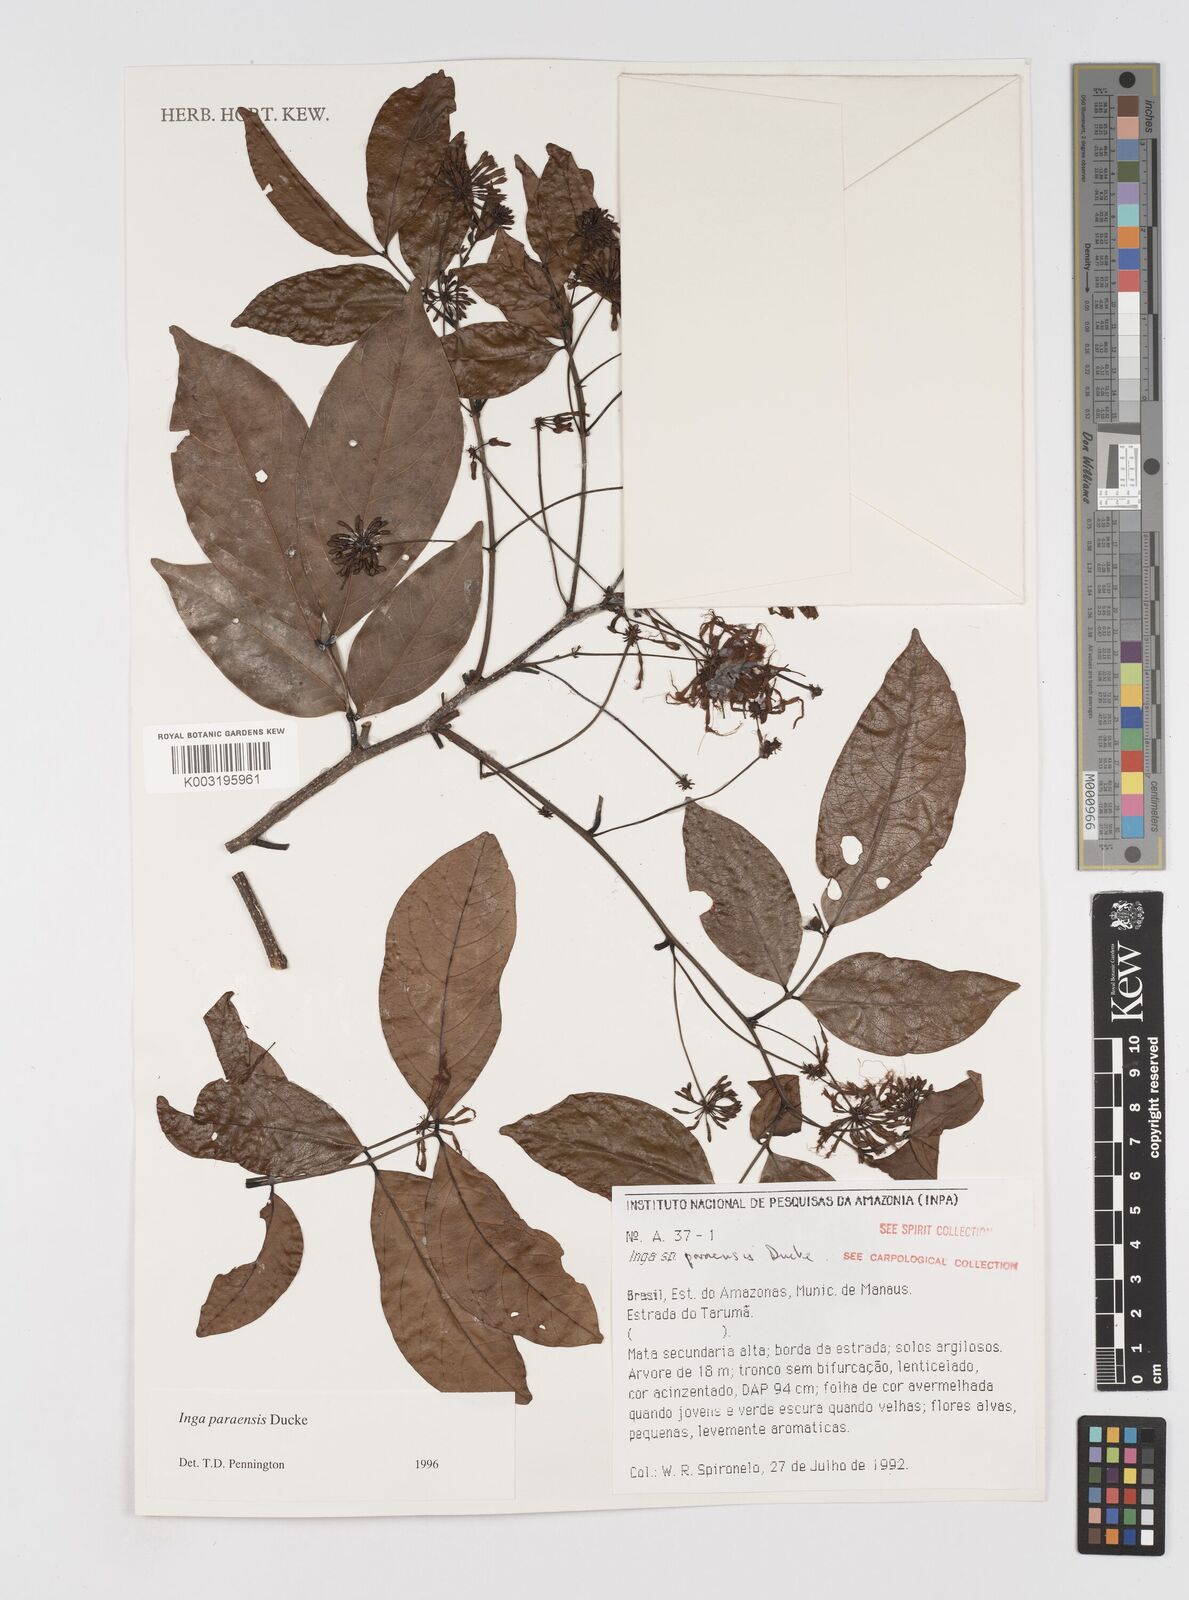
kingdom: Plantae
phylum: Tracheophyta
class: Magnoliopsida
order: Fabales
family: Fabaceae
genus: Inga
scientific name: Inga paraensis
